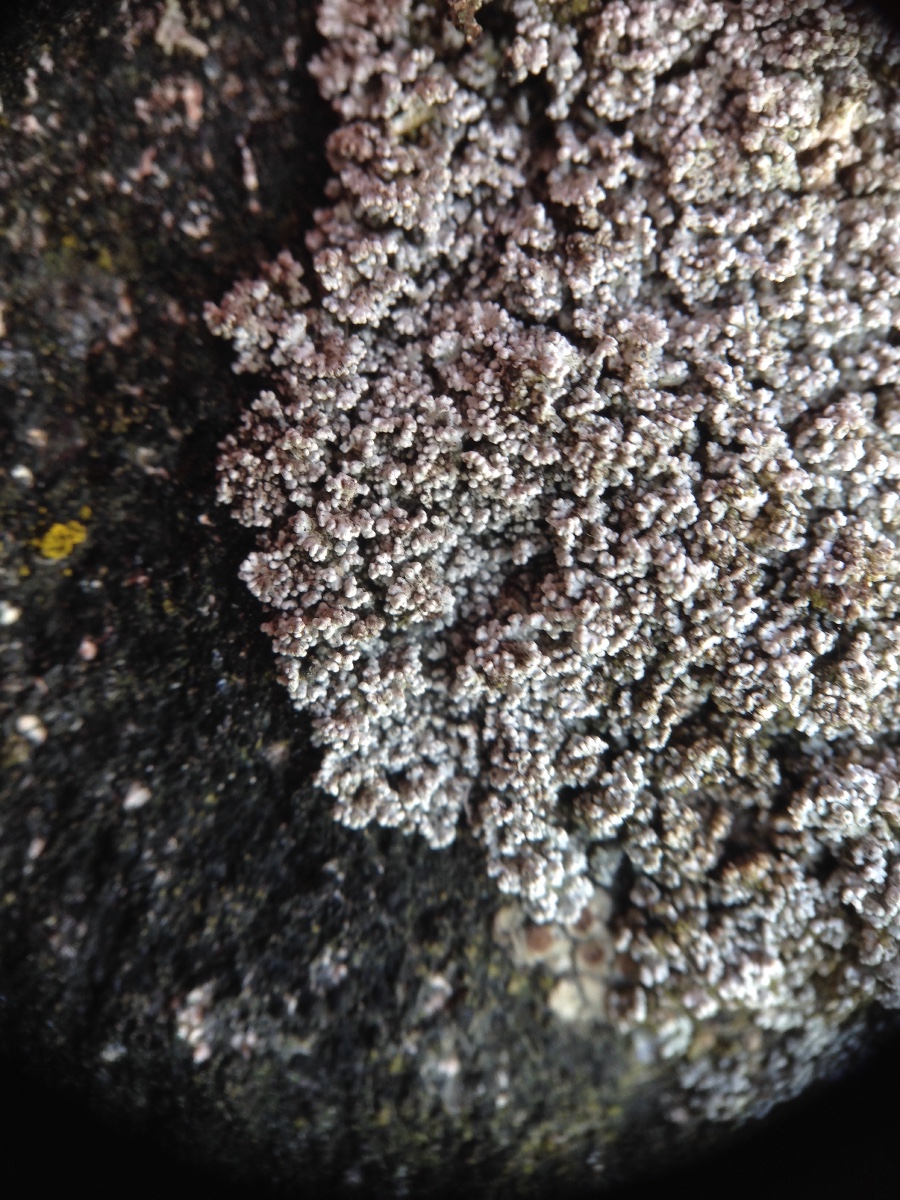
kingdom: Fungi
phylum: Ascomycota
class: Lecanoromycetes
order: Lecanorales
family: Stereocaulaceae
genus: Stereocaulon
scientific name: Stereocaulon
